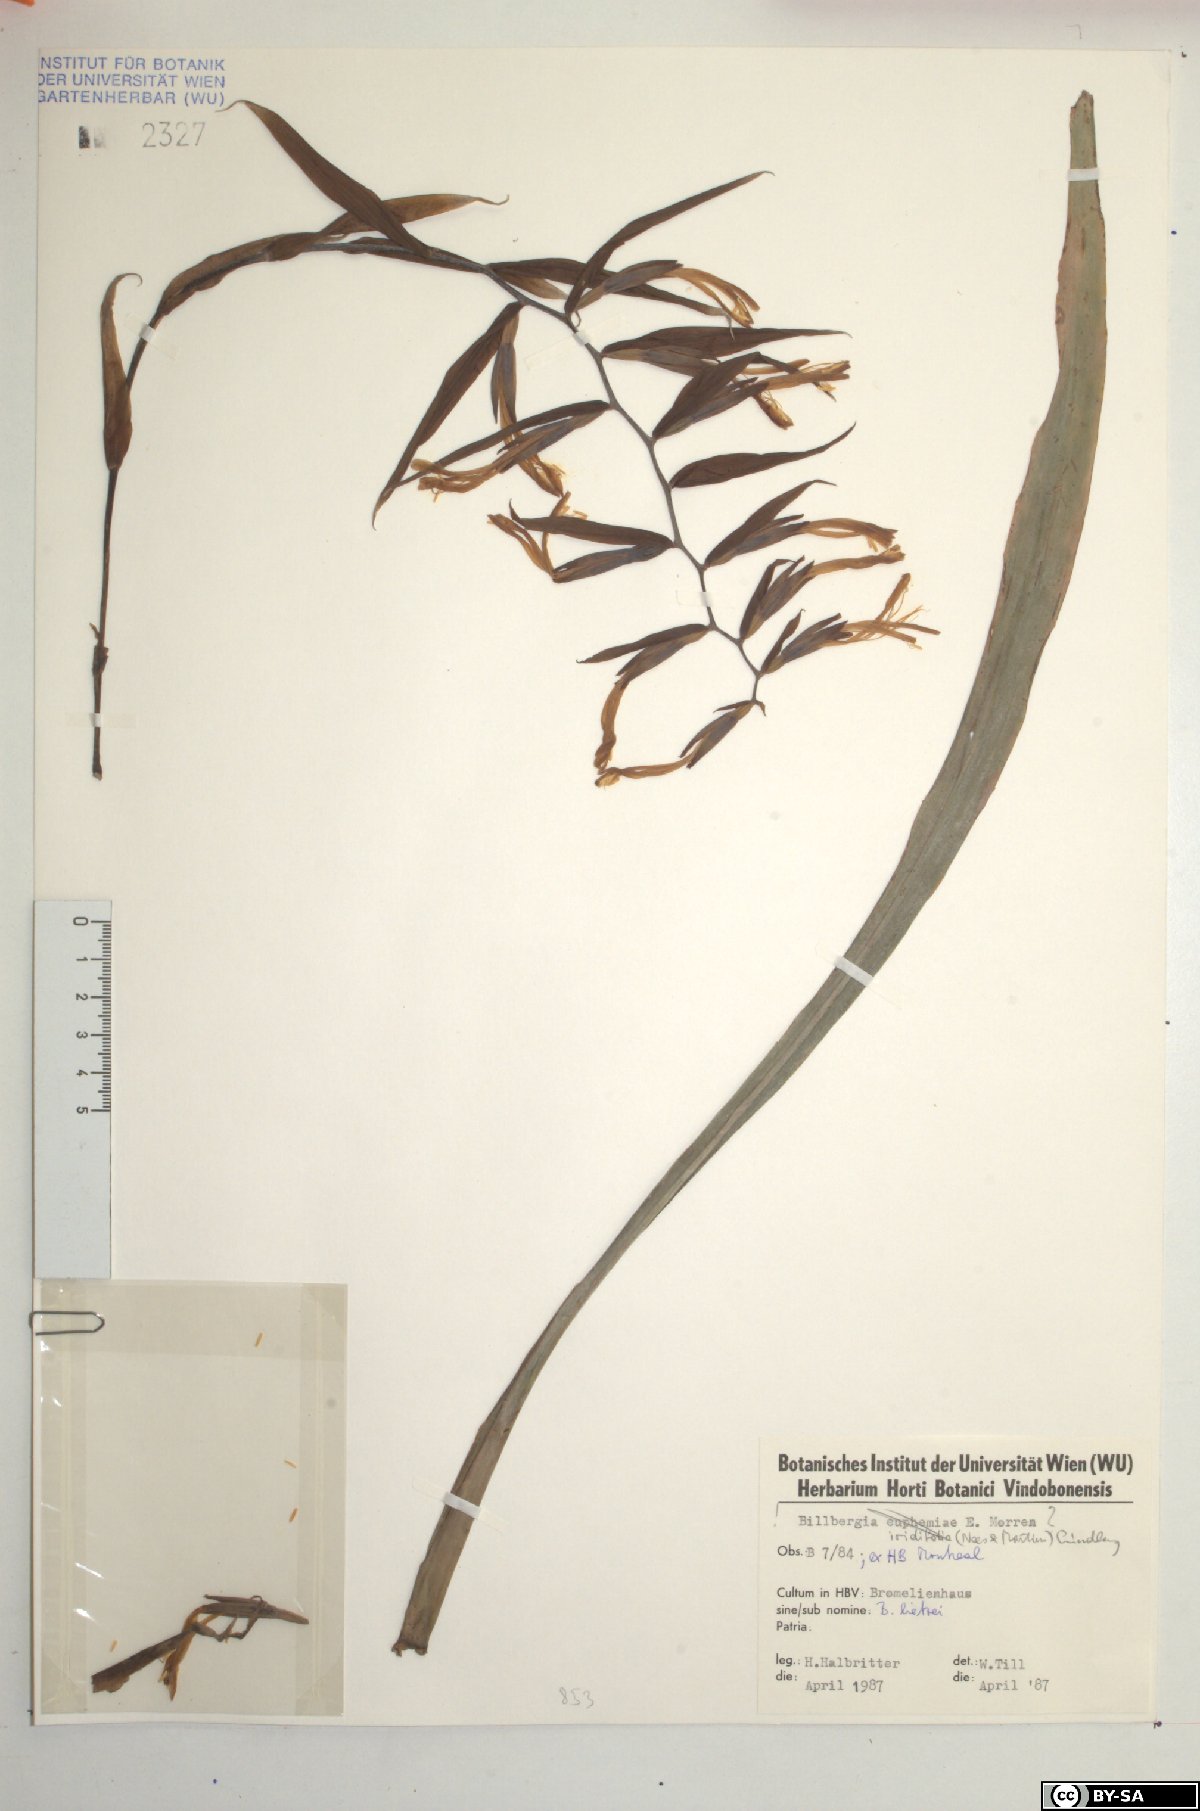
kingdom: Plantae
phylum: Tracheophyta
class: Liliopsida
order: Poales
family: Bromeliaceae
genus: Billbergia
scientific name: Billbergia lietzei
